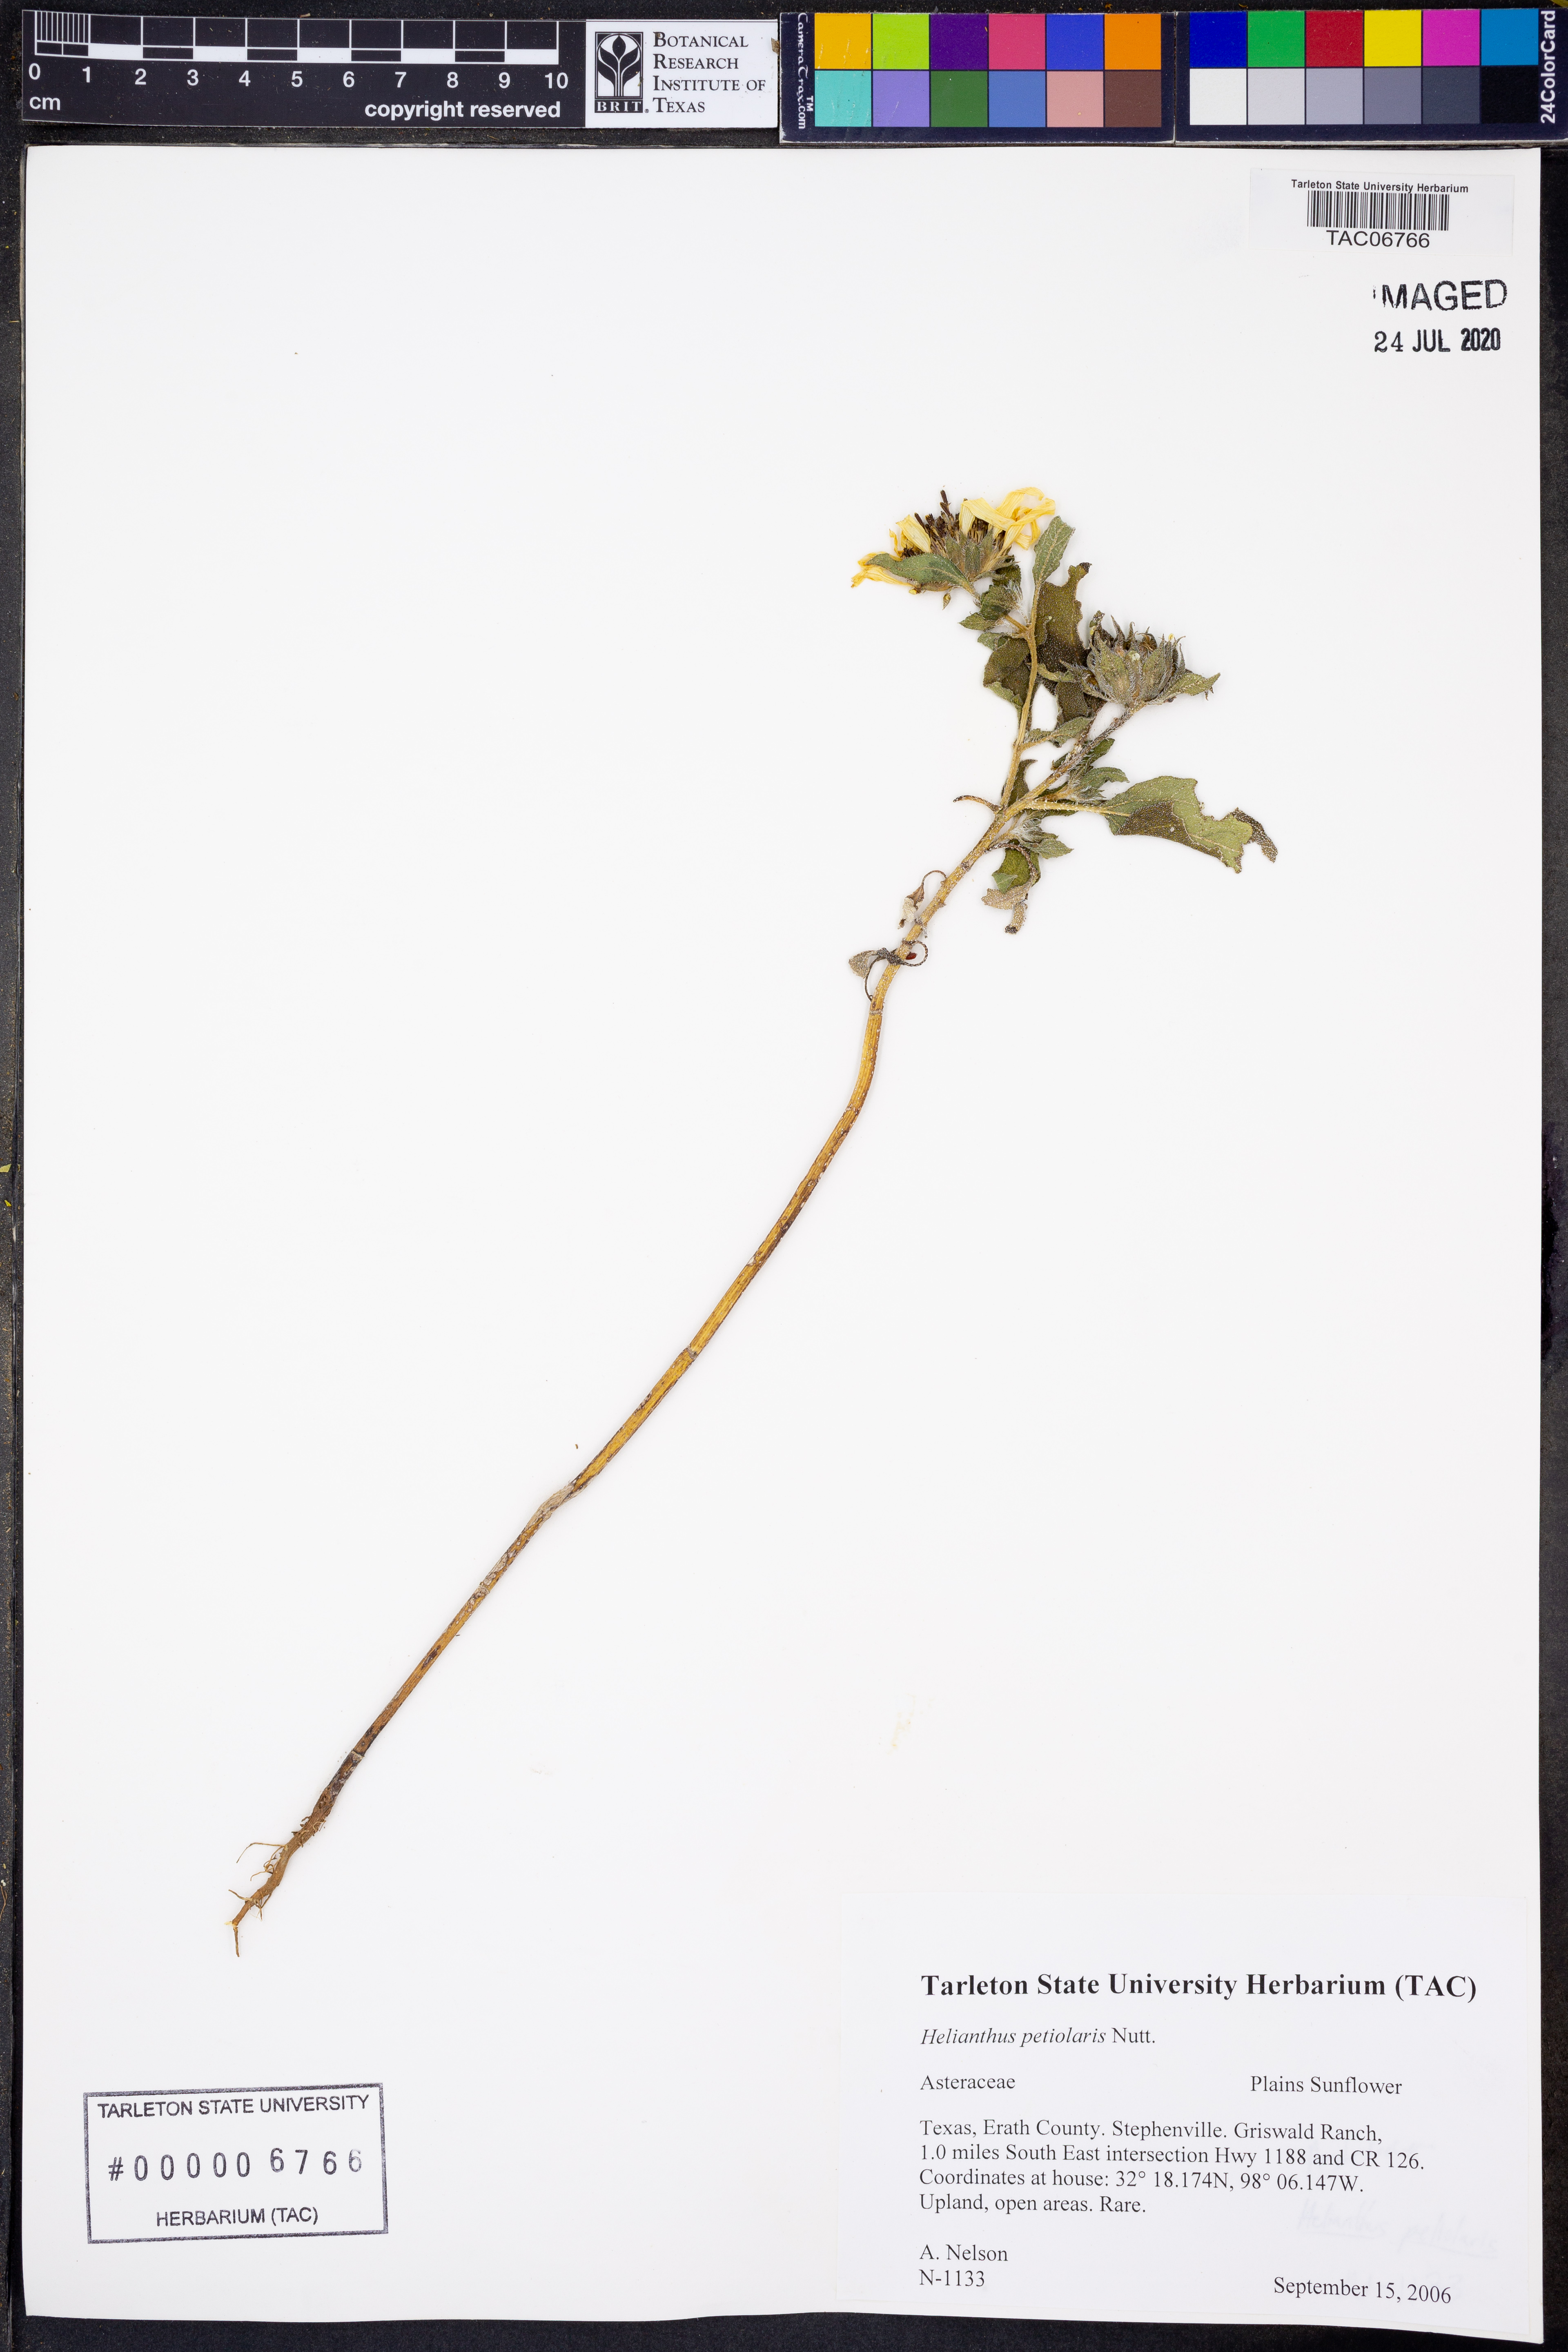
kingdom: Plantae
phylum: Tracheophyta
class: Magnoliopsida
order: Asterales
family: Asteraceae
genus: Helianthus
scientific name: Helianthus petiolaris
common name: Lesser sunflower
